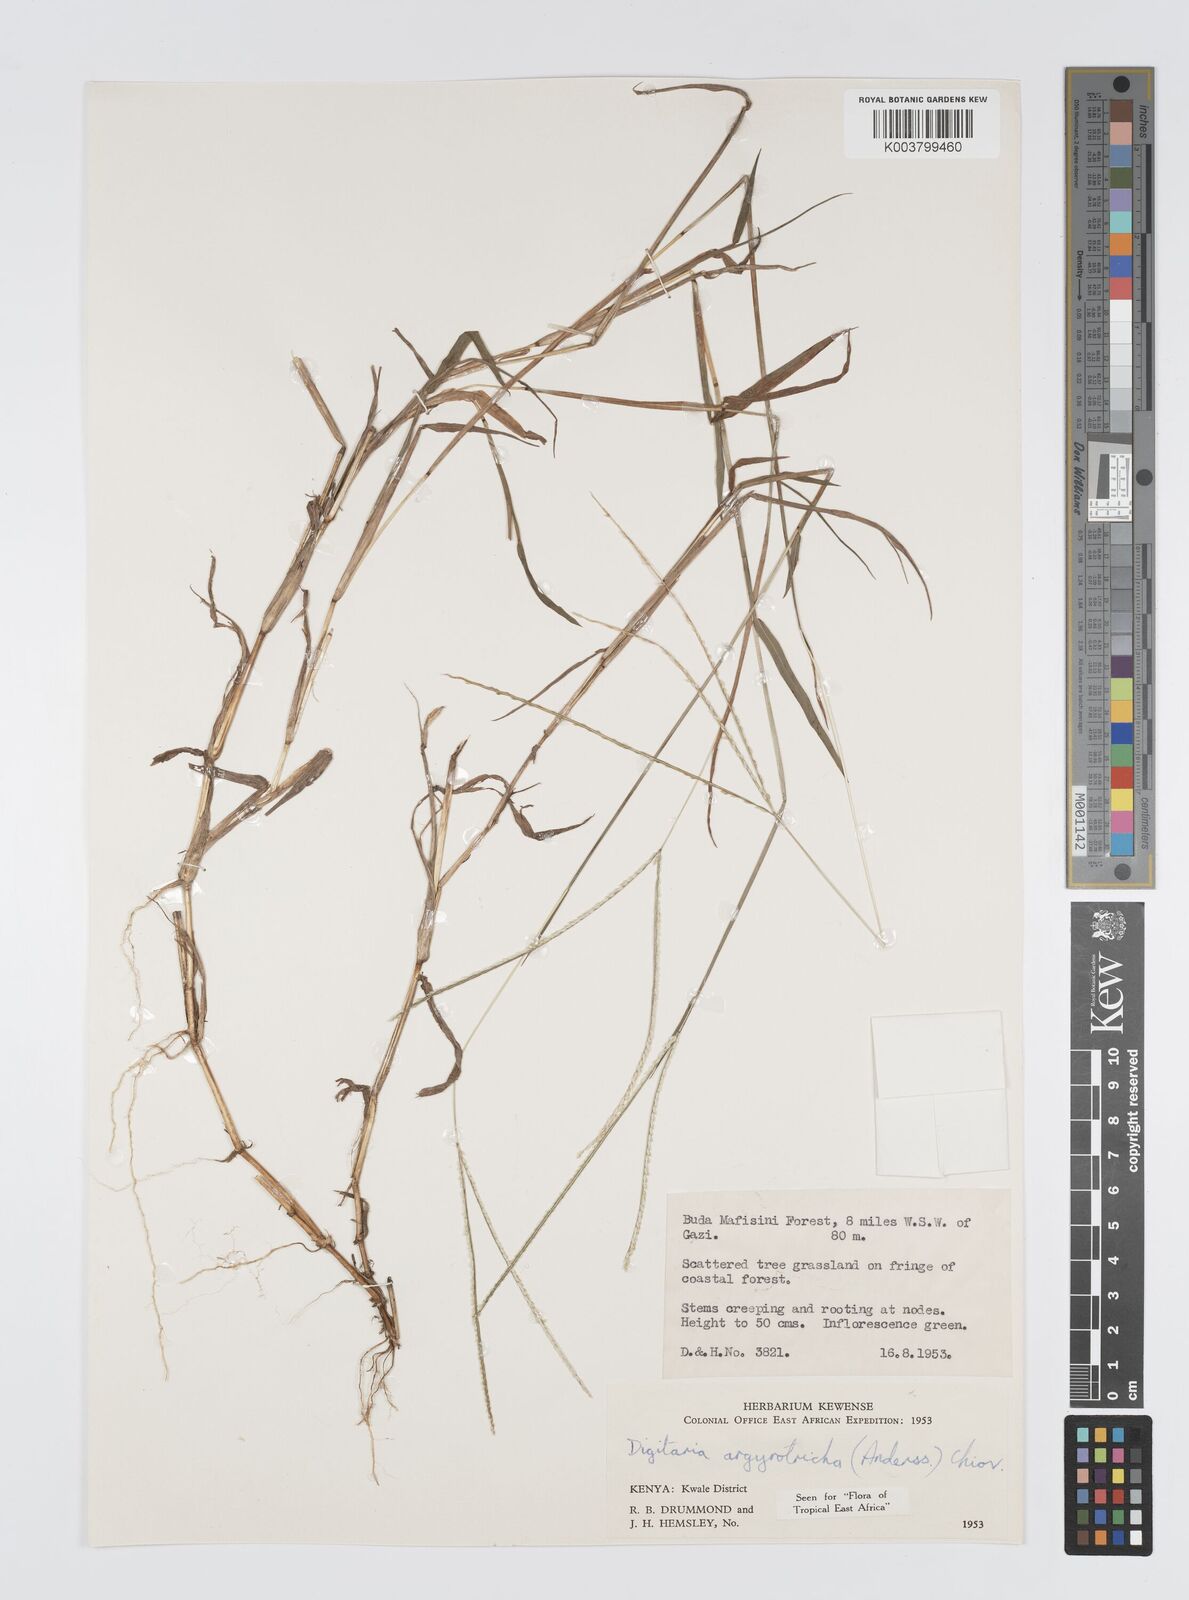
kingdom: Plantae
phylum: Tracheophyta
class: Liliopsida
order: Poales
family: Poaceae
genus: Digitaria
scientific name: Digitaria argyrotricha
